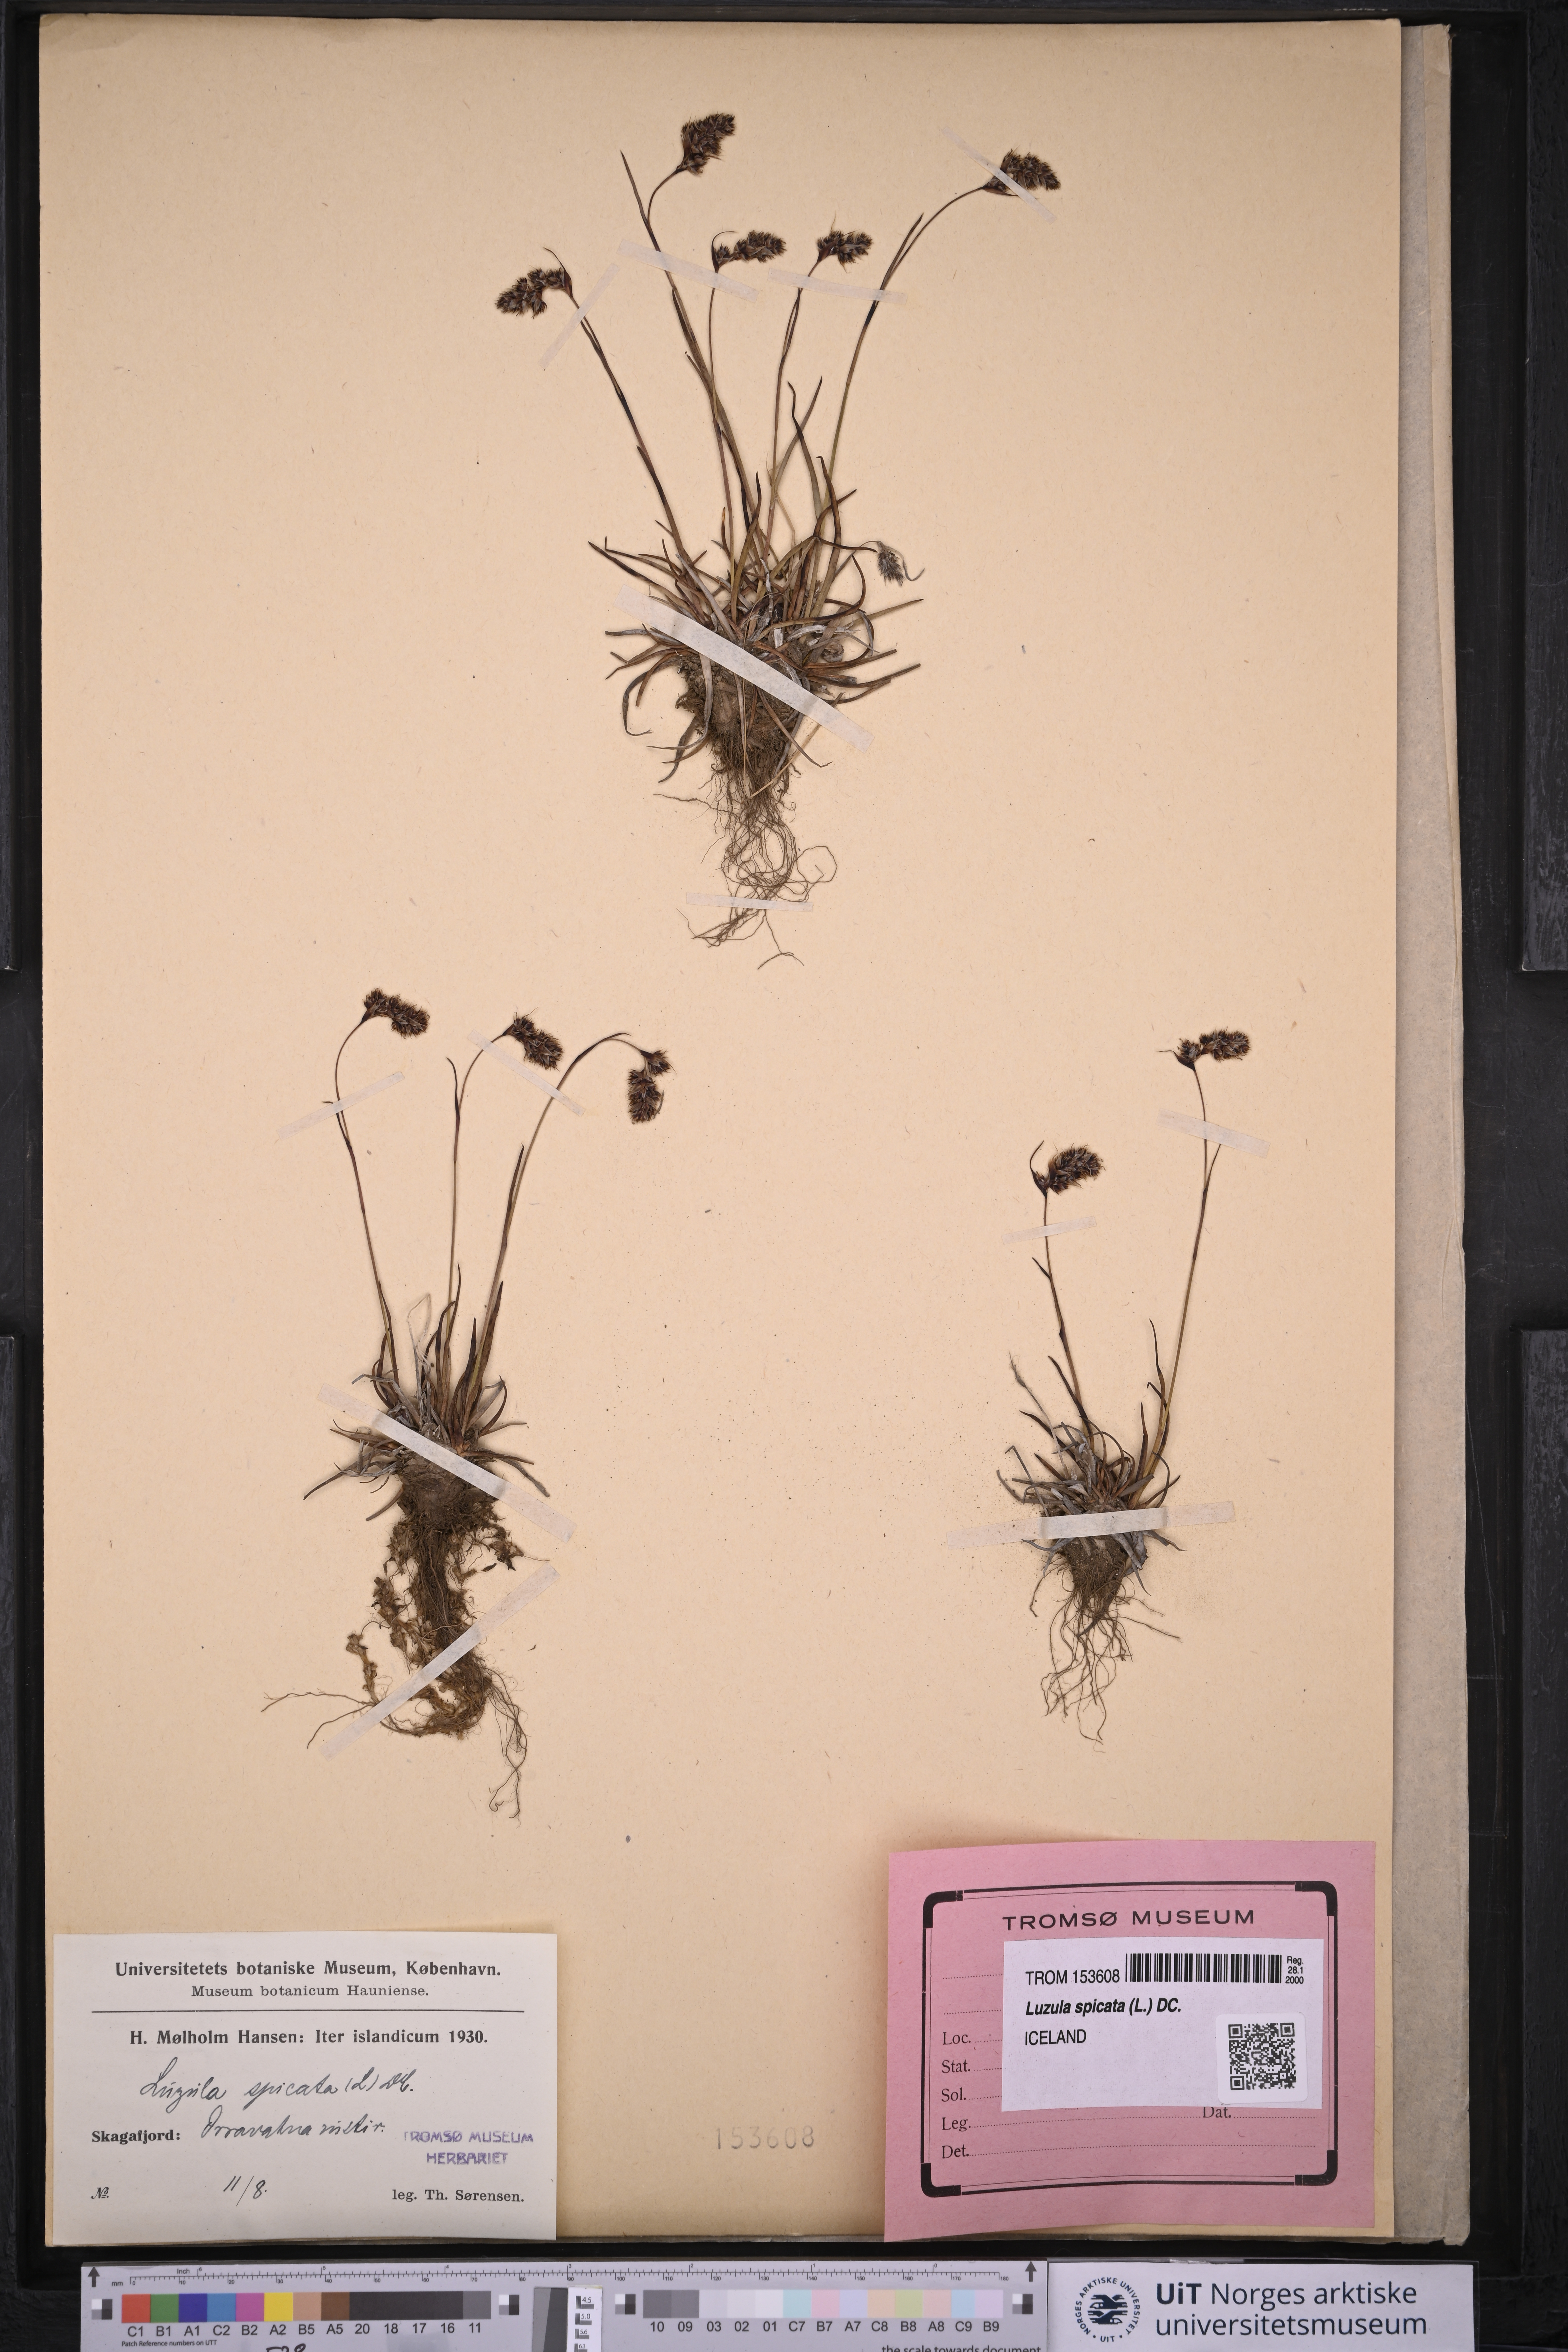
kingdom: Plantae
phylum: Tracheophyta
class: Liliopsida
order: Poales
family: Juncaceae
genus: Luzula
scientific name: Luzula spicata
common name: Spiked wood-rush
